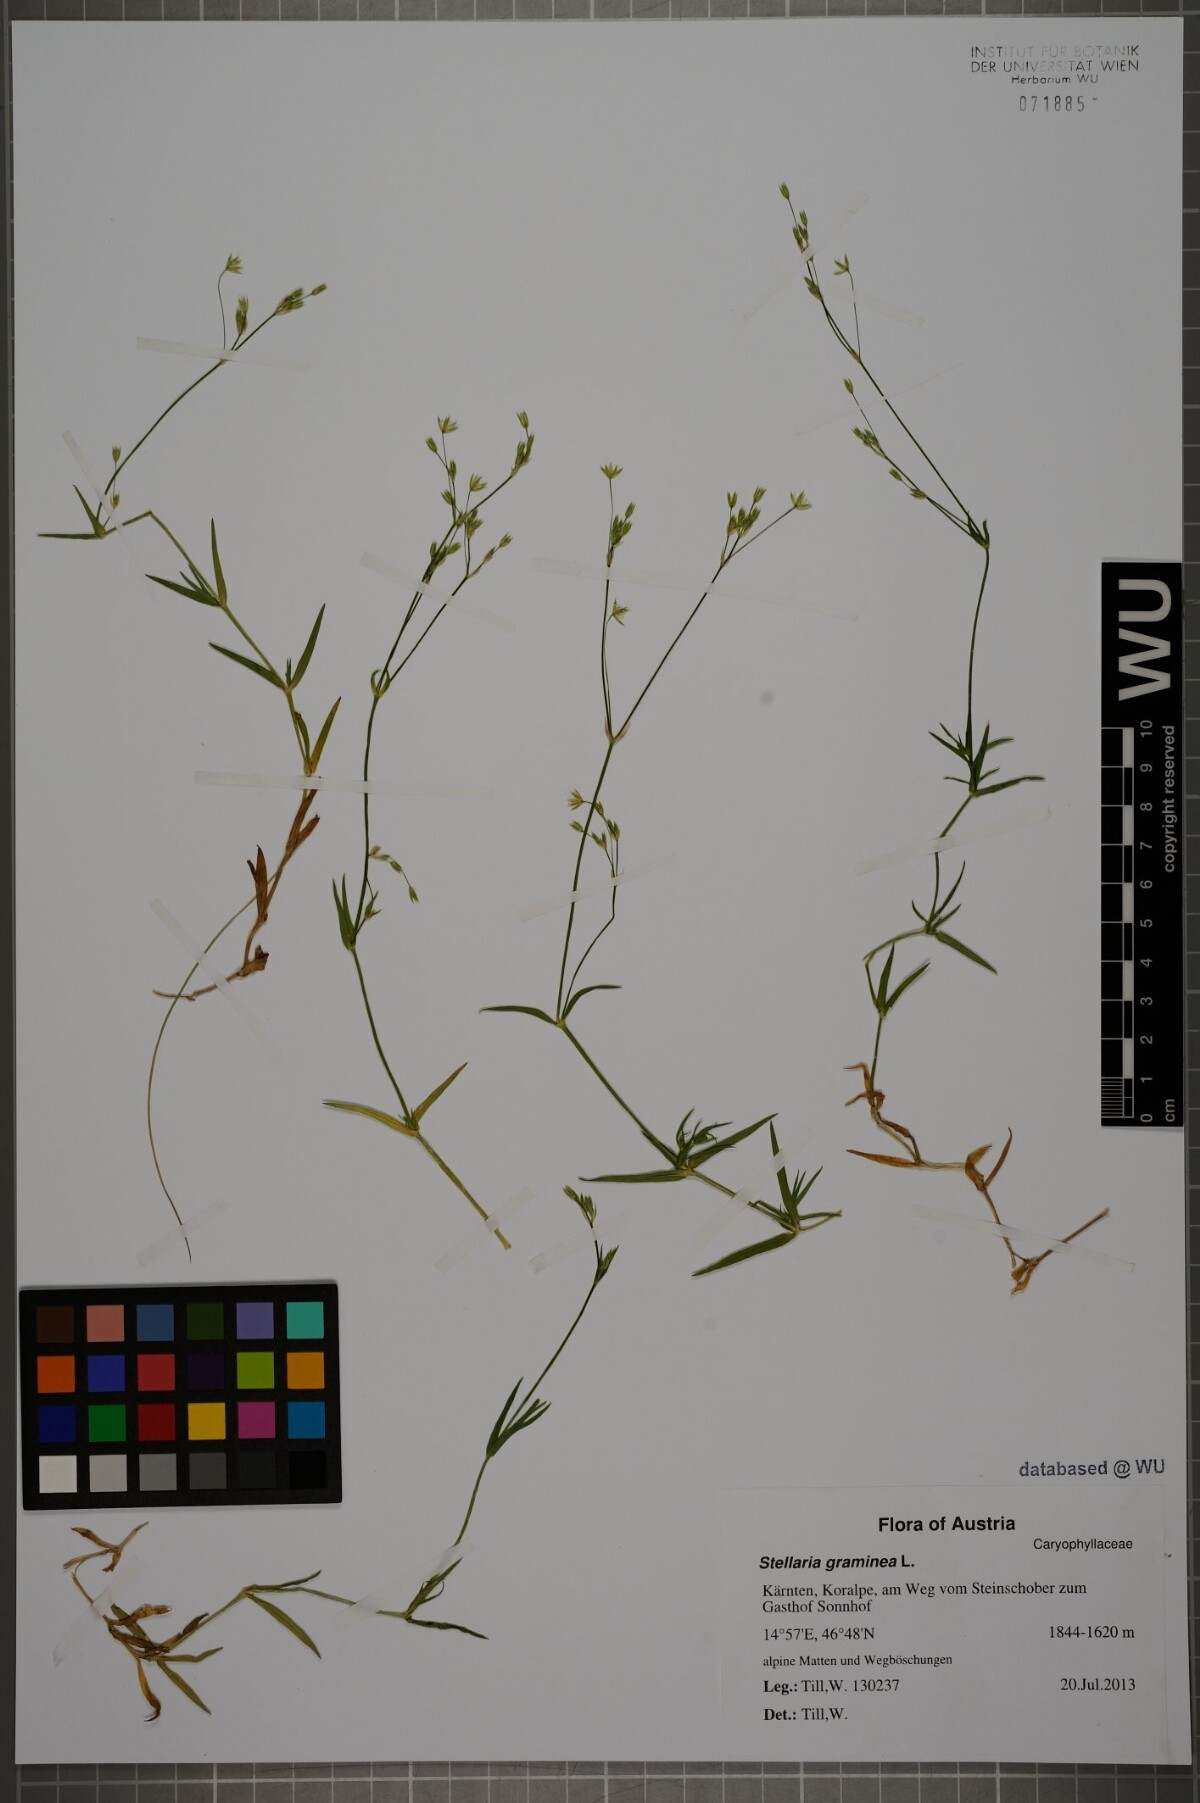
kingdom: Plantae
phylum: Tracheophyta
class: Magnoliopsida
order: Caryophyllales
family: Caryophyllaceae
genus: Stellaria
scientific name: Stellaria graminea
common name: Grass-like starwort
